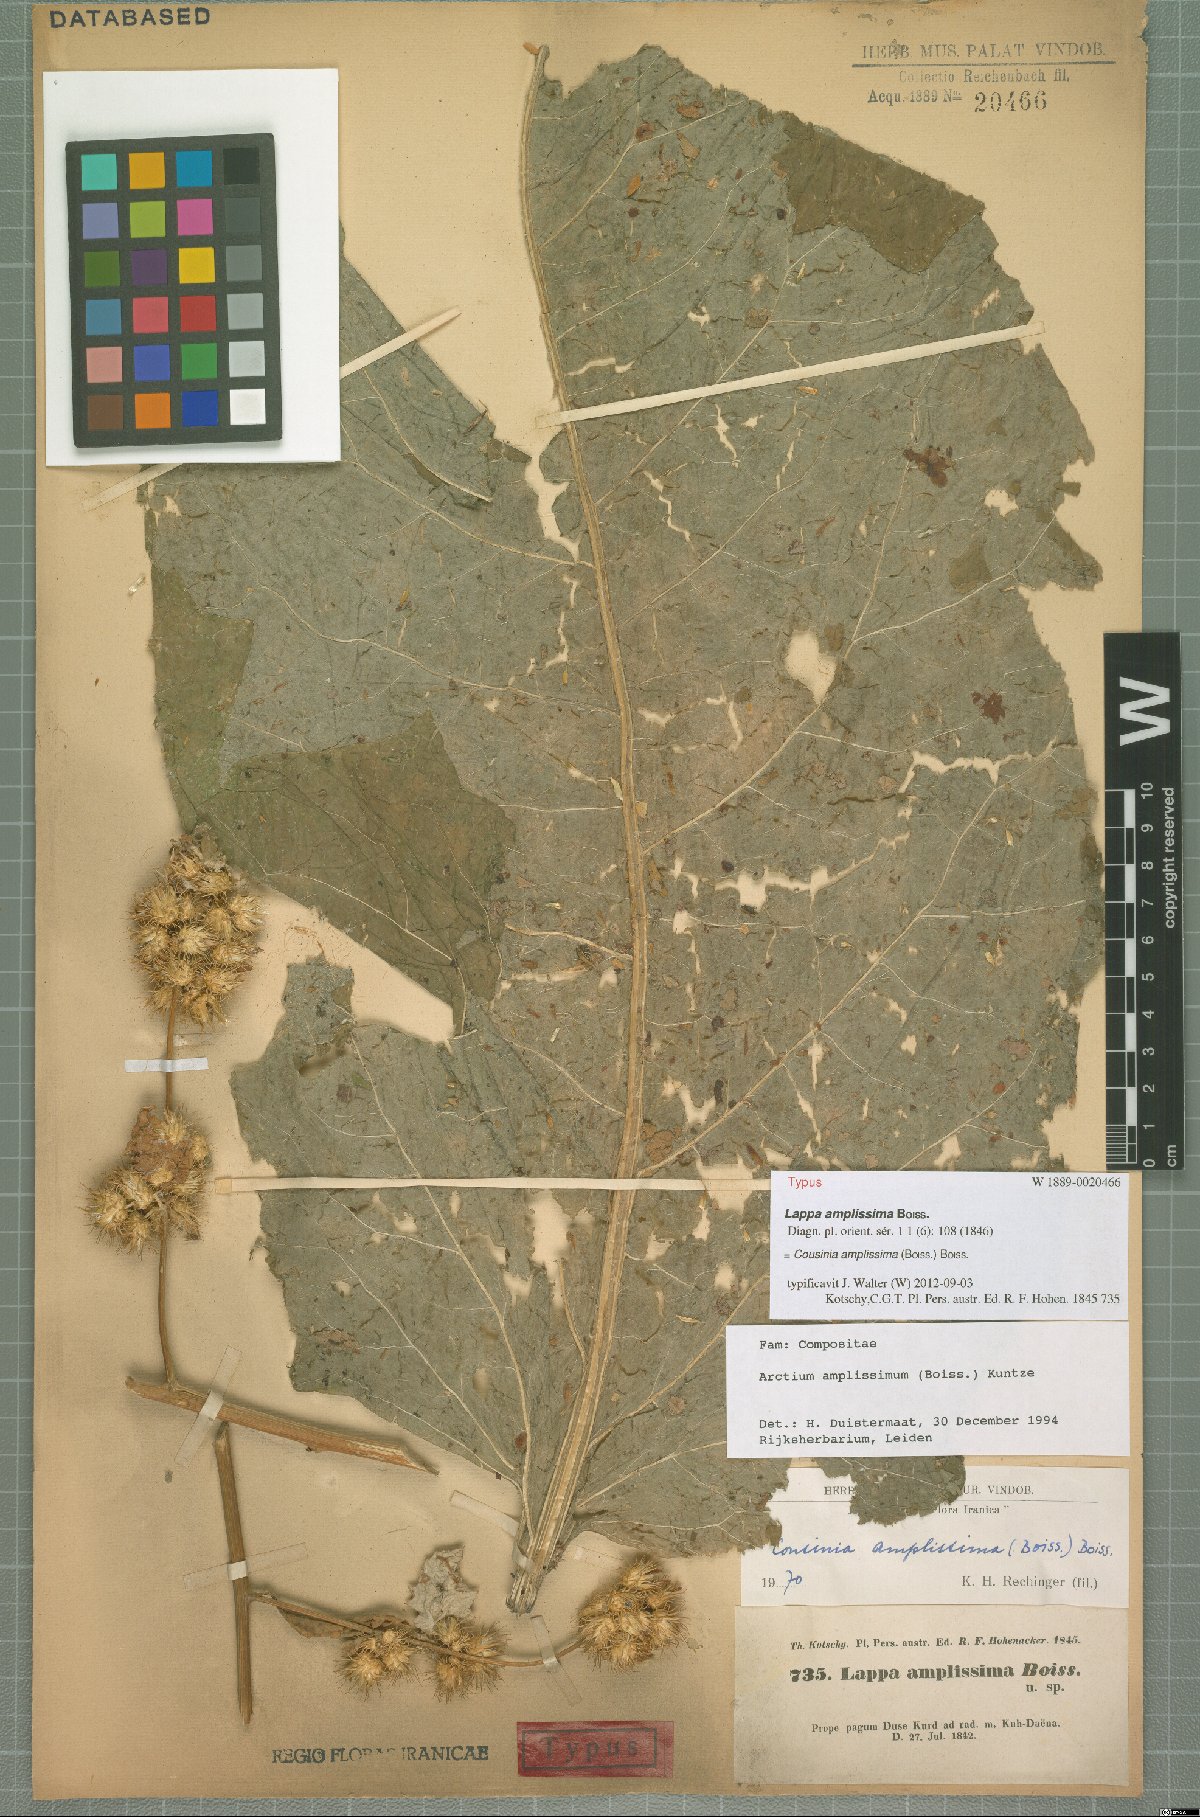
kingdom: Plantae
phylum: Tracheophyta
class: Magnoliopsida
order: Asterales
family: Asteraceae
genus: Arctium
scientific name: Arctium amplissimum
